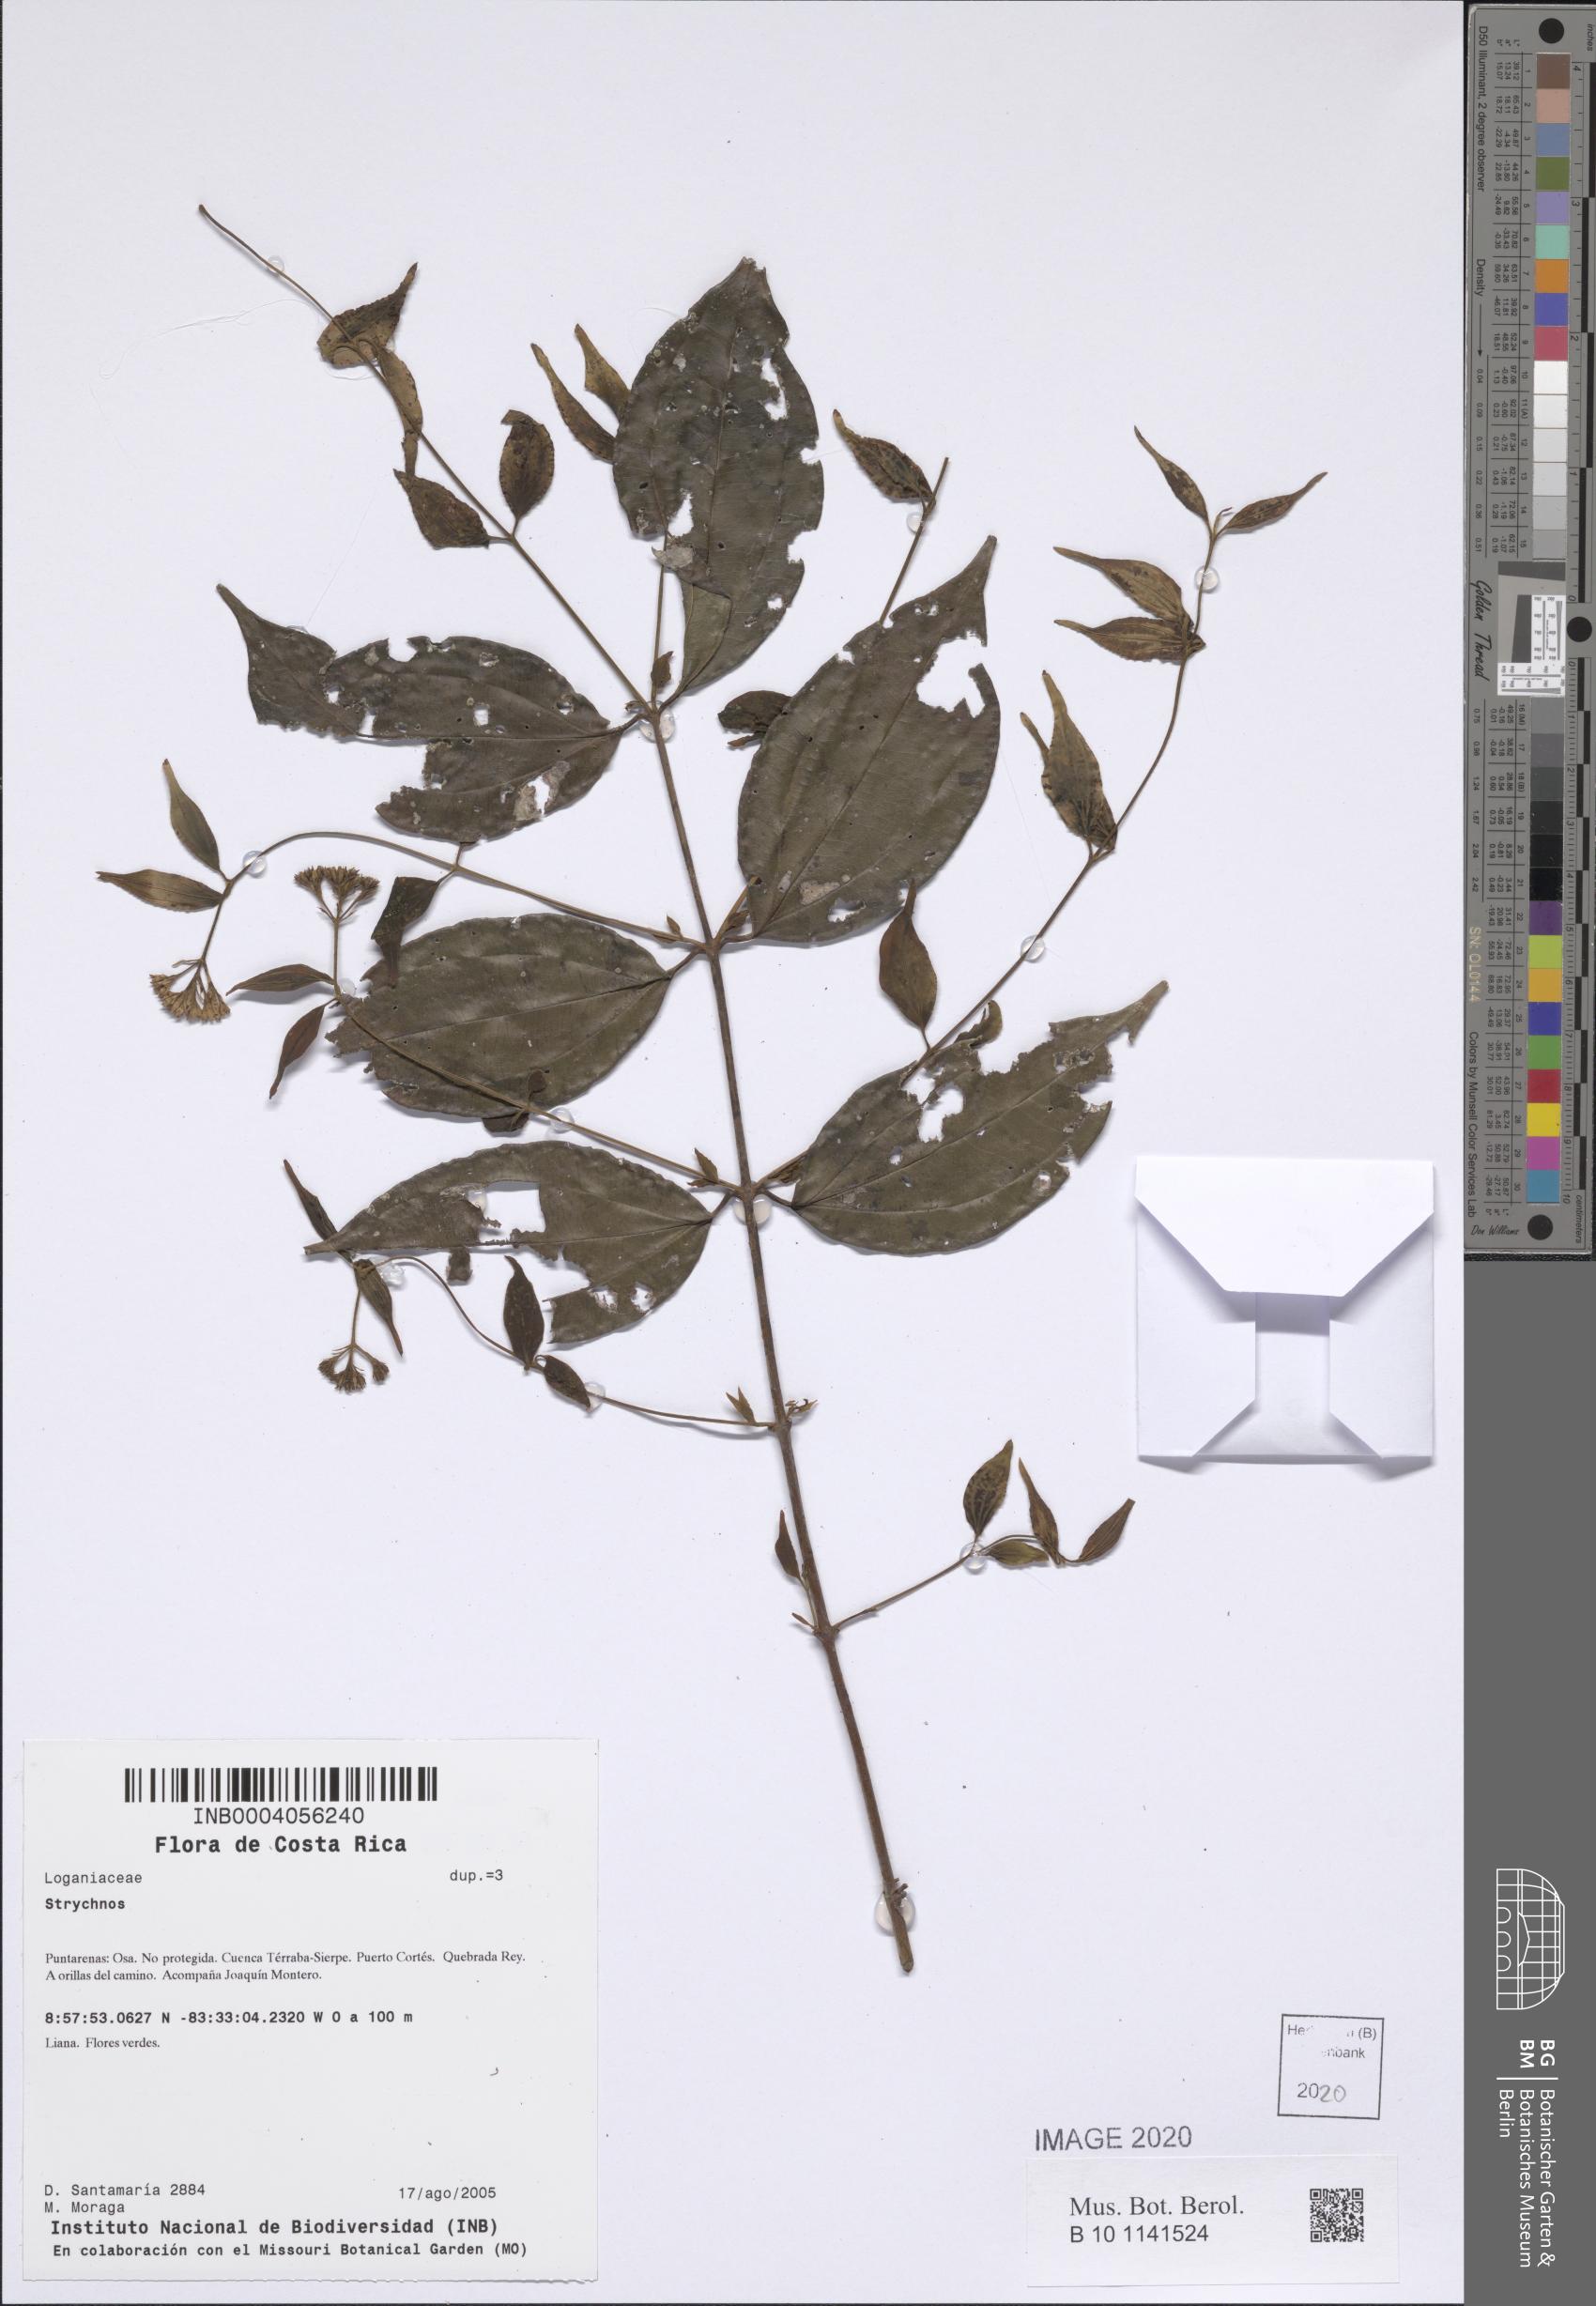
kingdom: Plantae
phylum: Tracheophyta
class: Magnoliopsida
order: Gentianales
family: Loganiaceae
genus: Strychnos
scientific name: Strychnos
